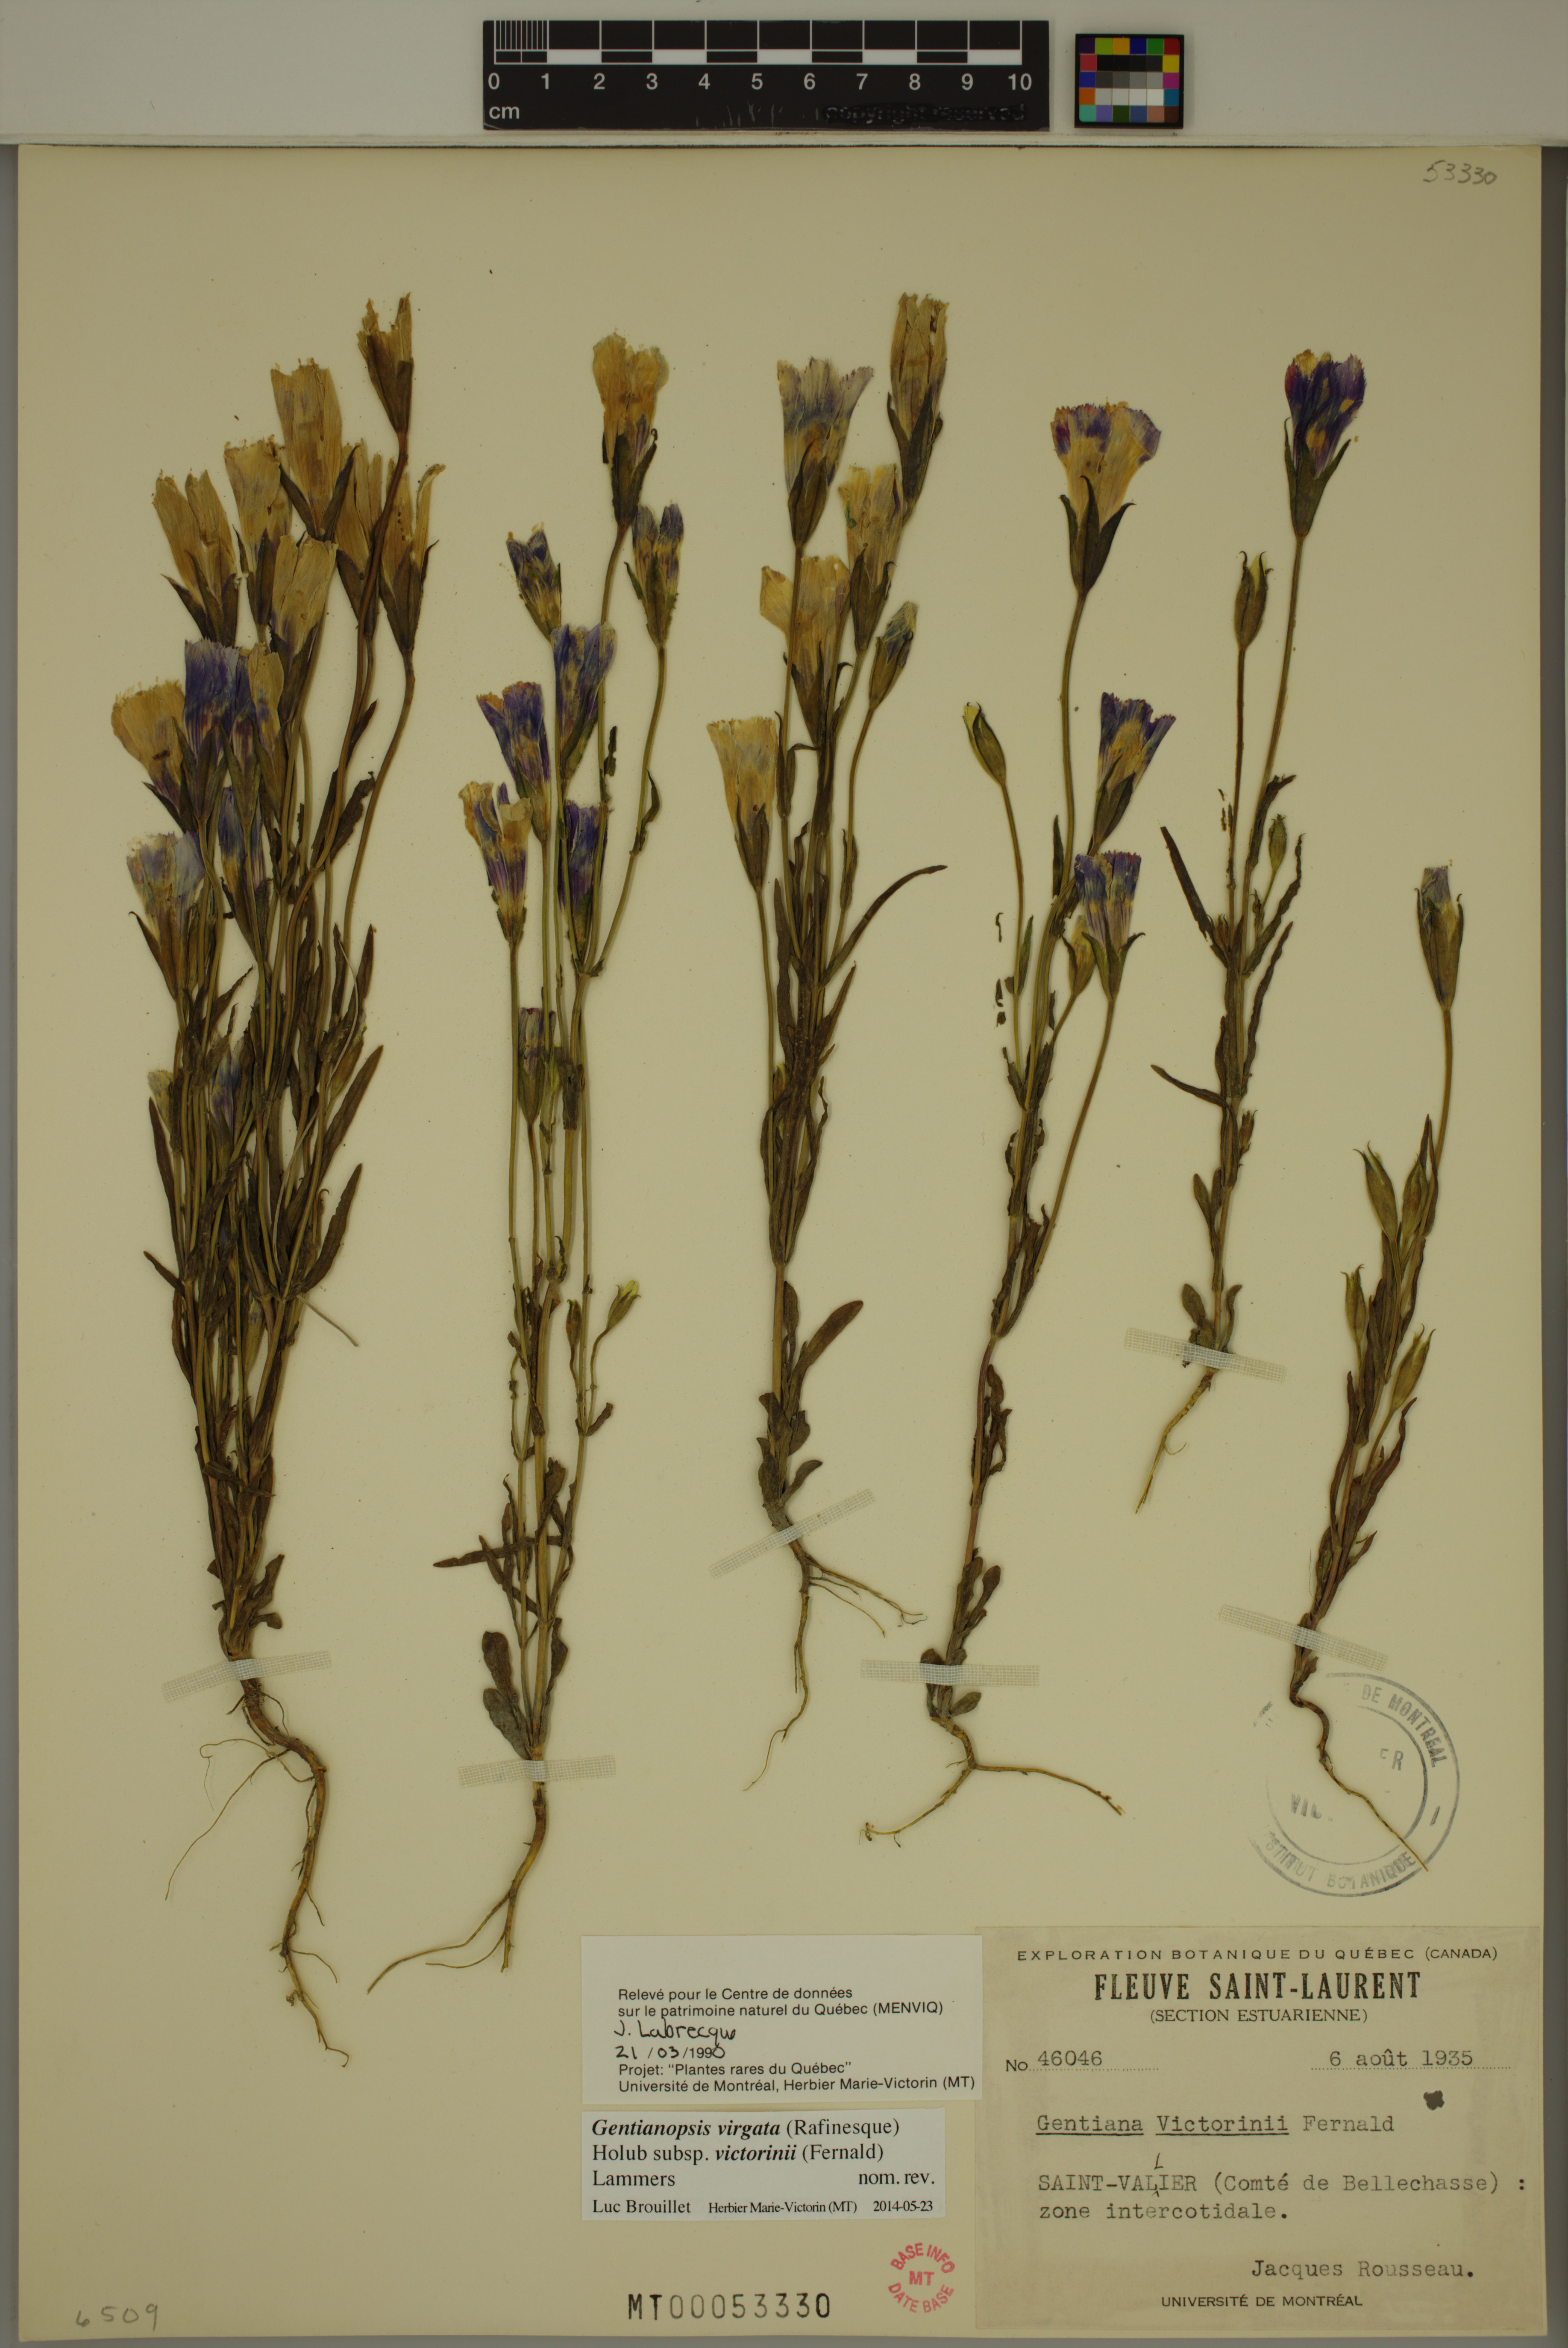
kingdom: Plantae
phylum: Tracheophyta
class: Magnoliopsida
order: Gentianales
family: Gentianaceae
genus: Gentianopsis
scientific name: Gentianopsis victorinii
